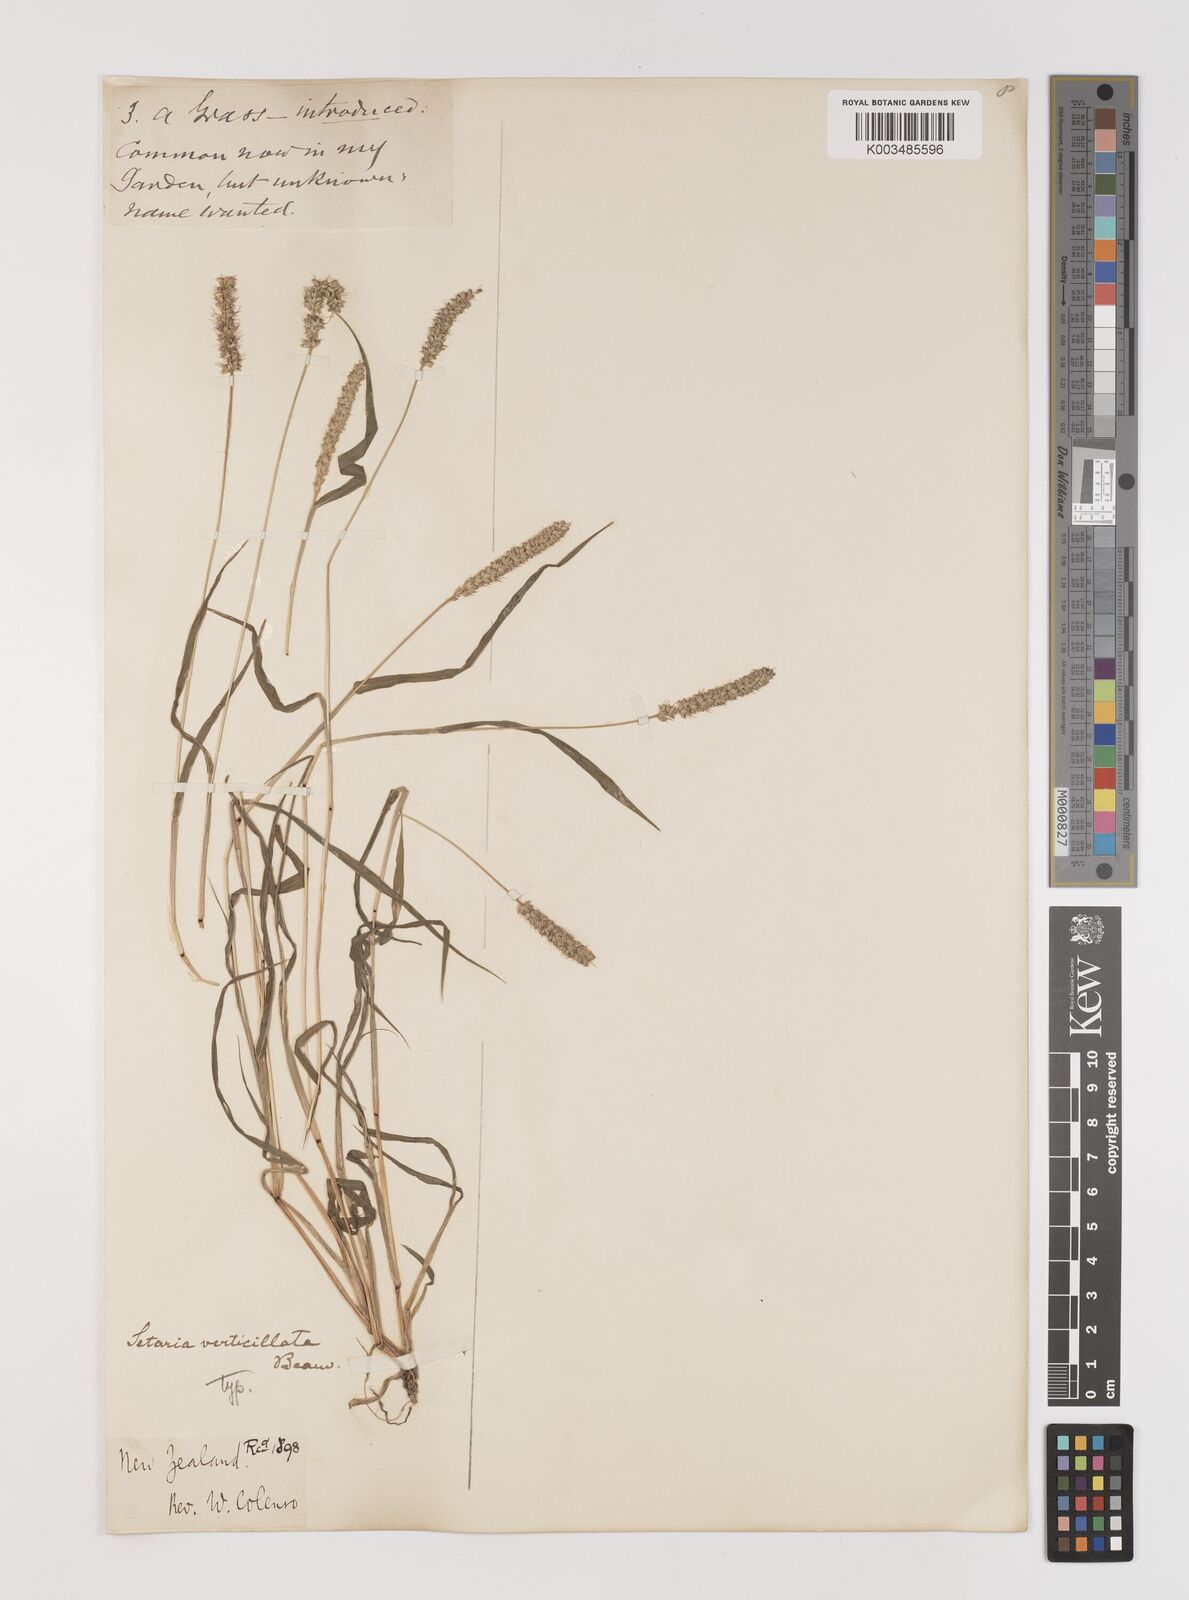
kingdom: Plantae
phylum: Tracheophyta
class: Liliopsida
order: Poales
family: Poaceae
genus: Setaria
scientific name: Setaria verticillata
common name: Hooked bristlegrass
